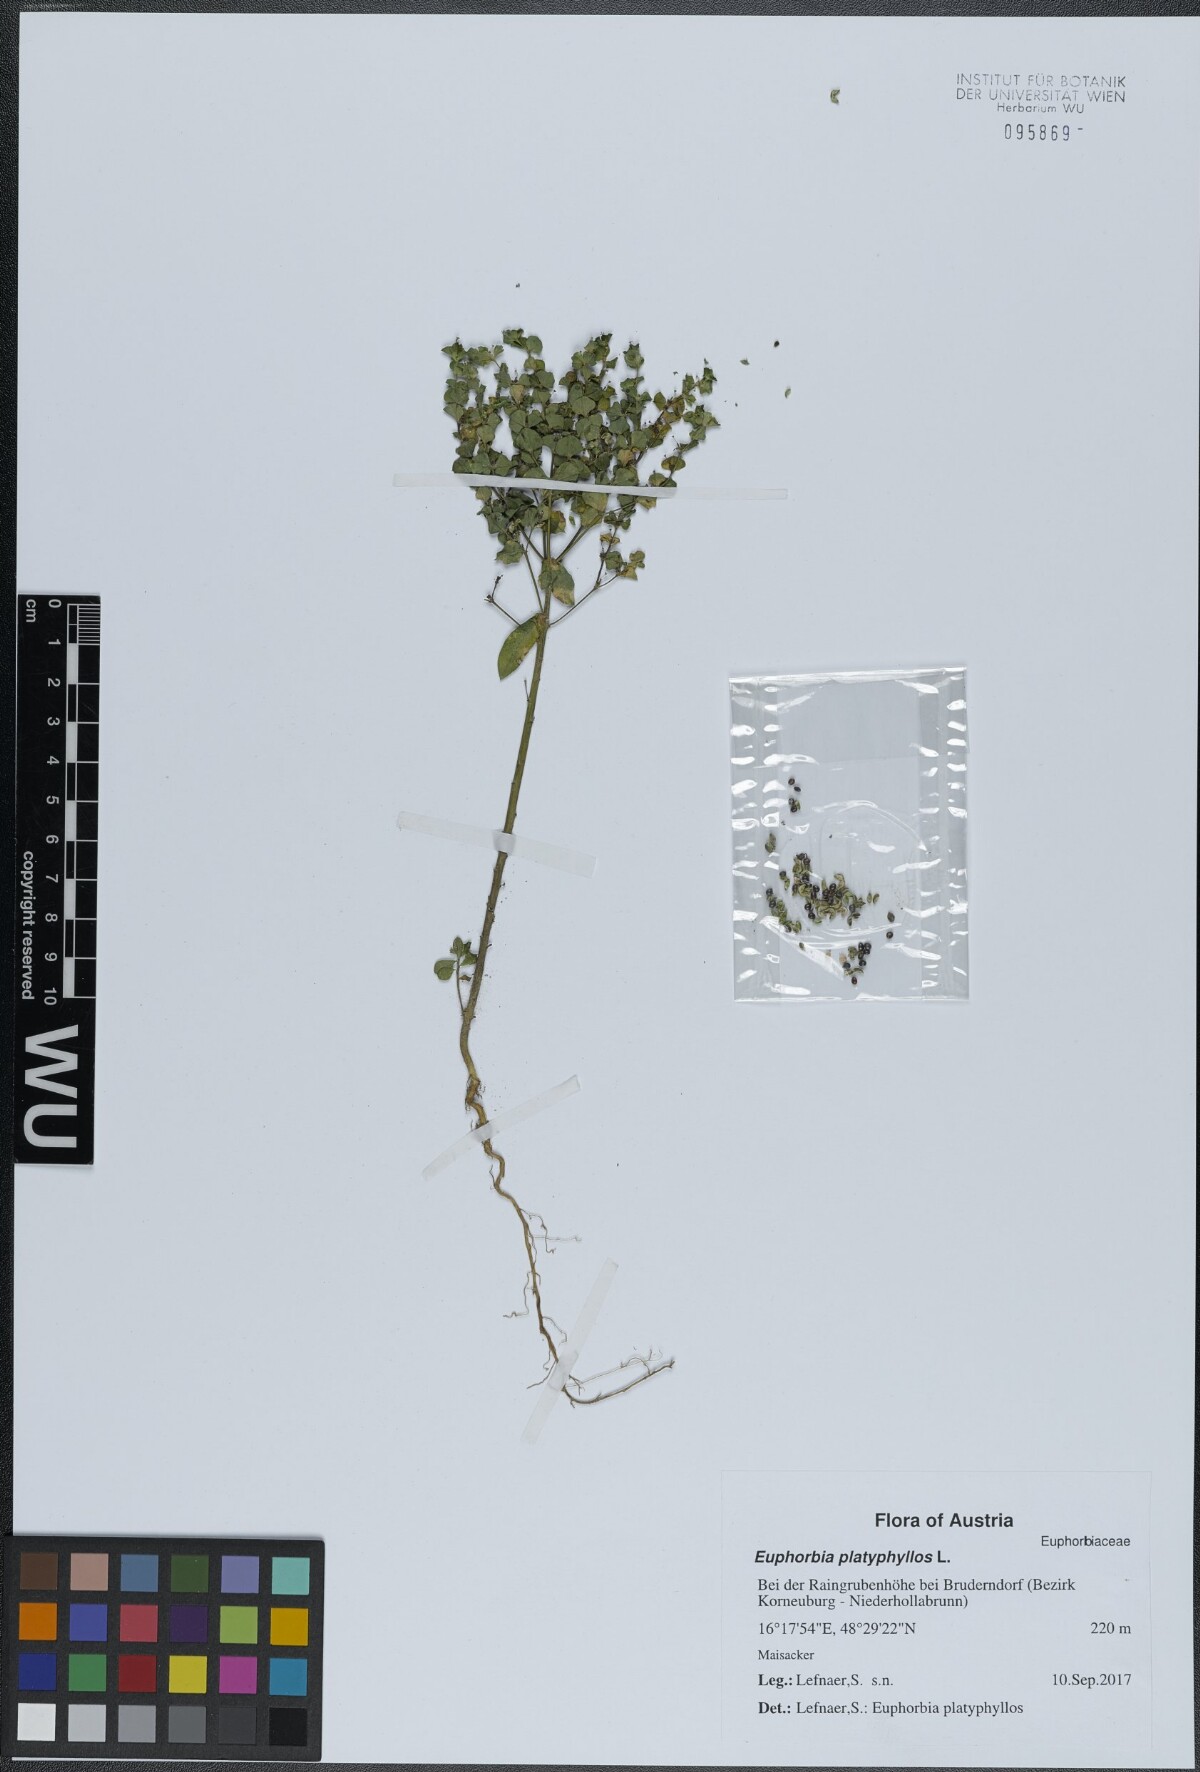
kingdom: Plantae
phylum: Tracheophyta
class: Magnoliopsida
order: Malpighiales
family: Euphorbiaceae
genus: Euphorbia
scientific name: Euphorbia platyphyllos
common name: Broad-leaved spurge
